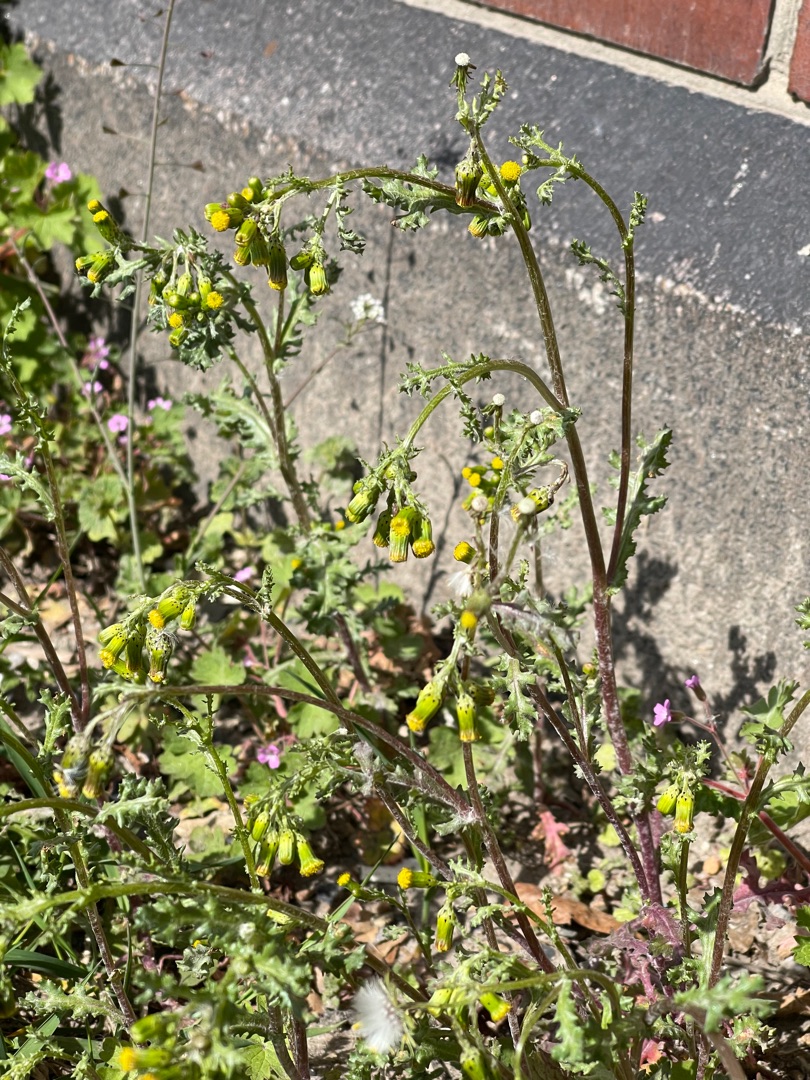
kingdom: Plantae
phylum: Tracheophyta
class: Magnoliopsida
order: Asterales
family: Asteraceae
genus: Senecio
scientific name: Senecio vulgaris
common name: Almindelig brandbæger
